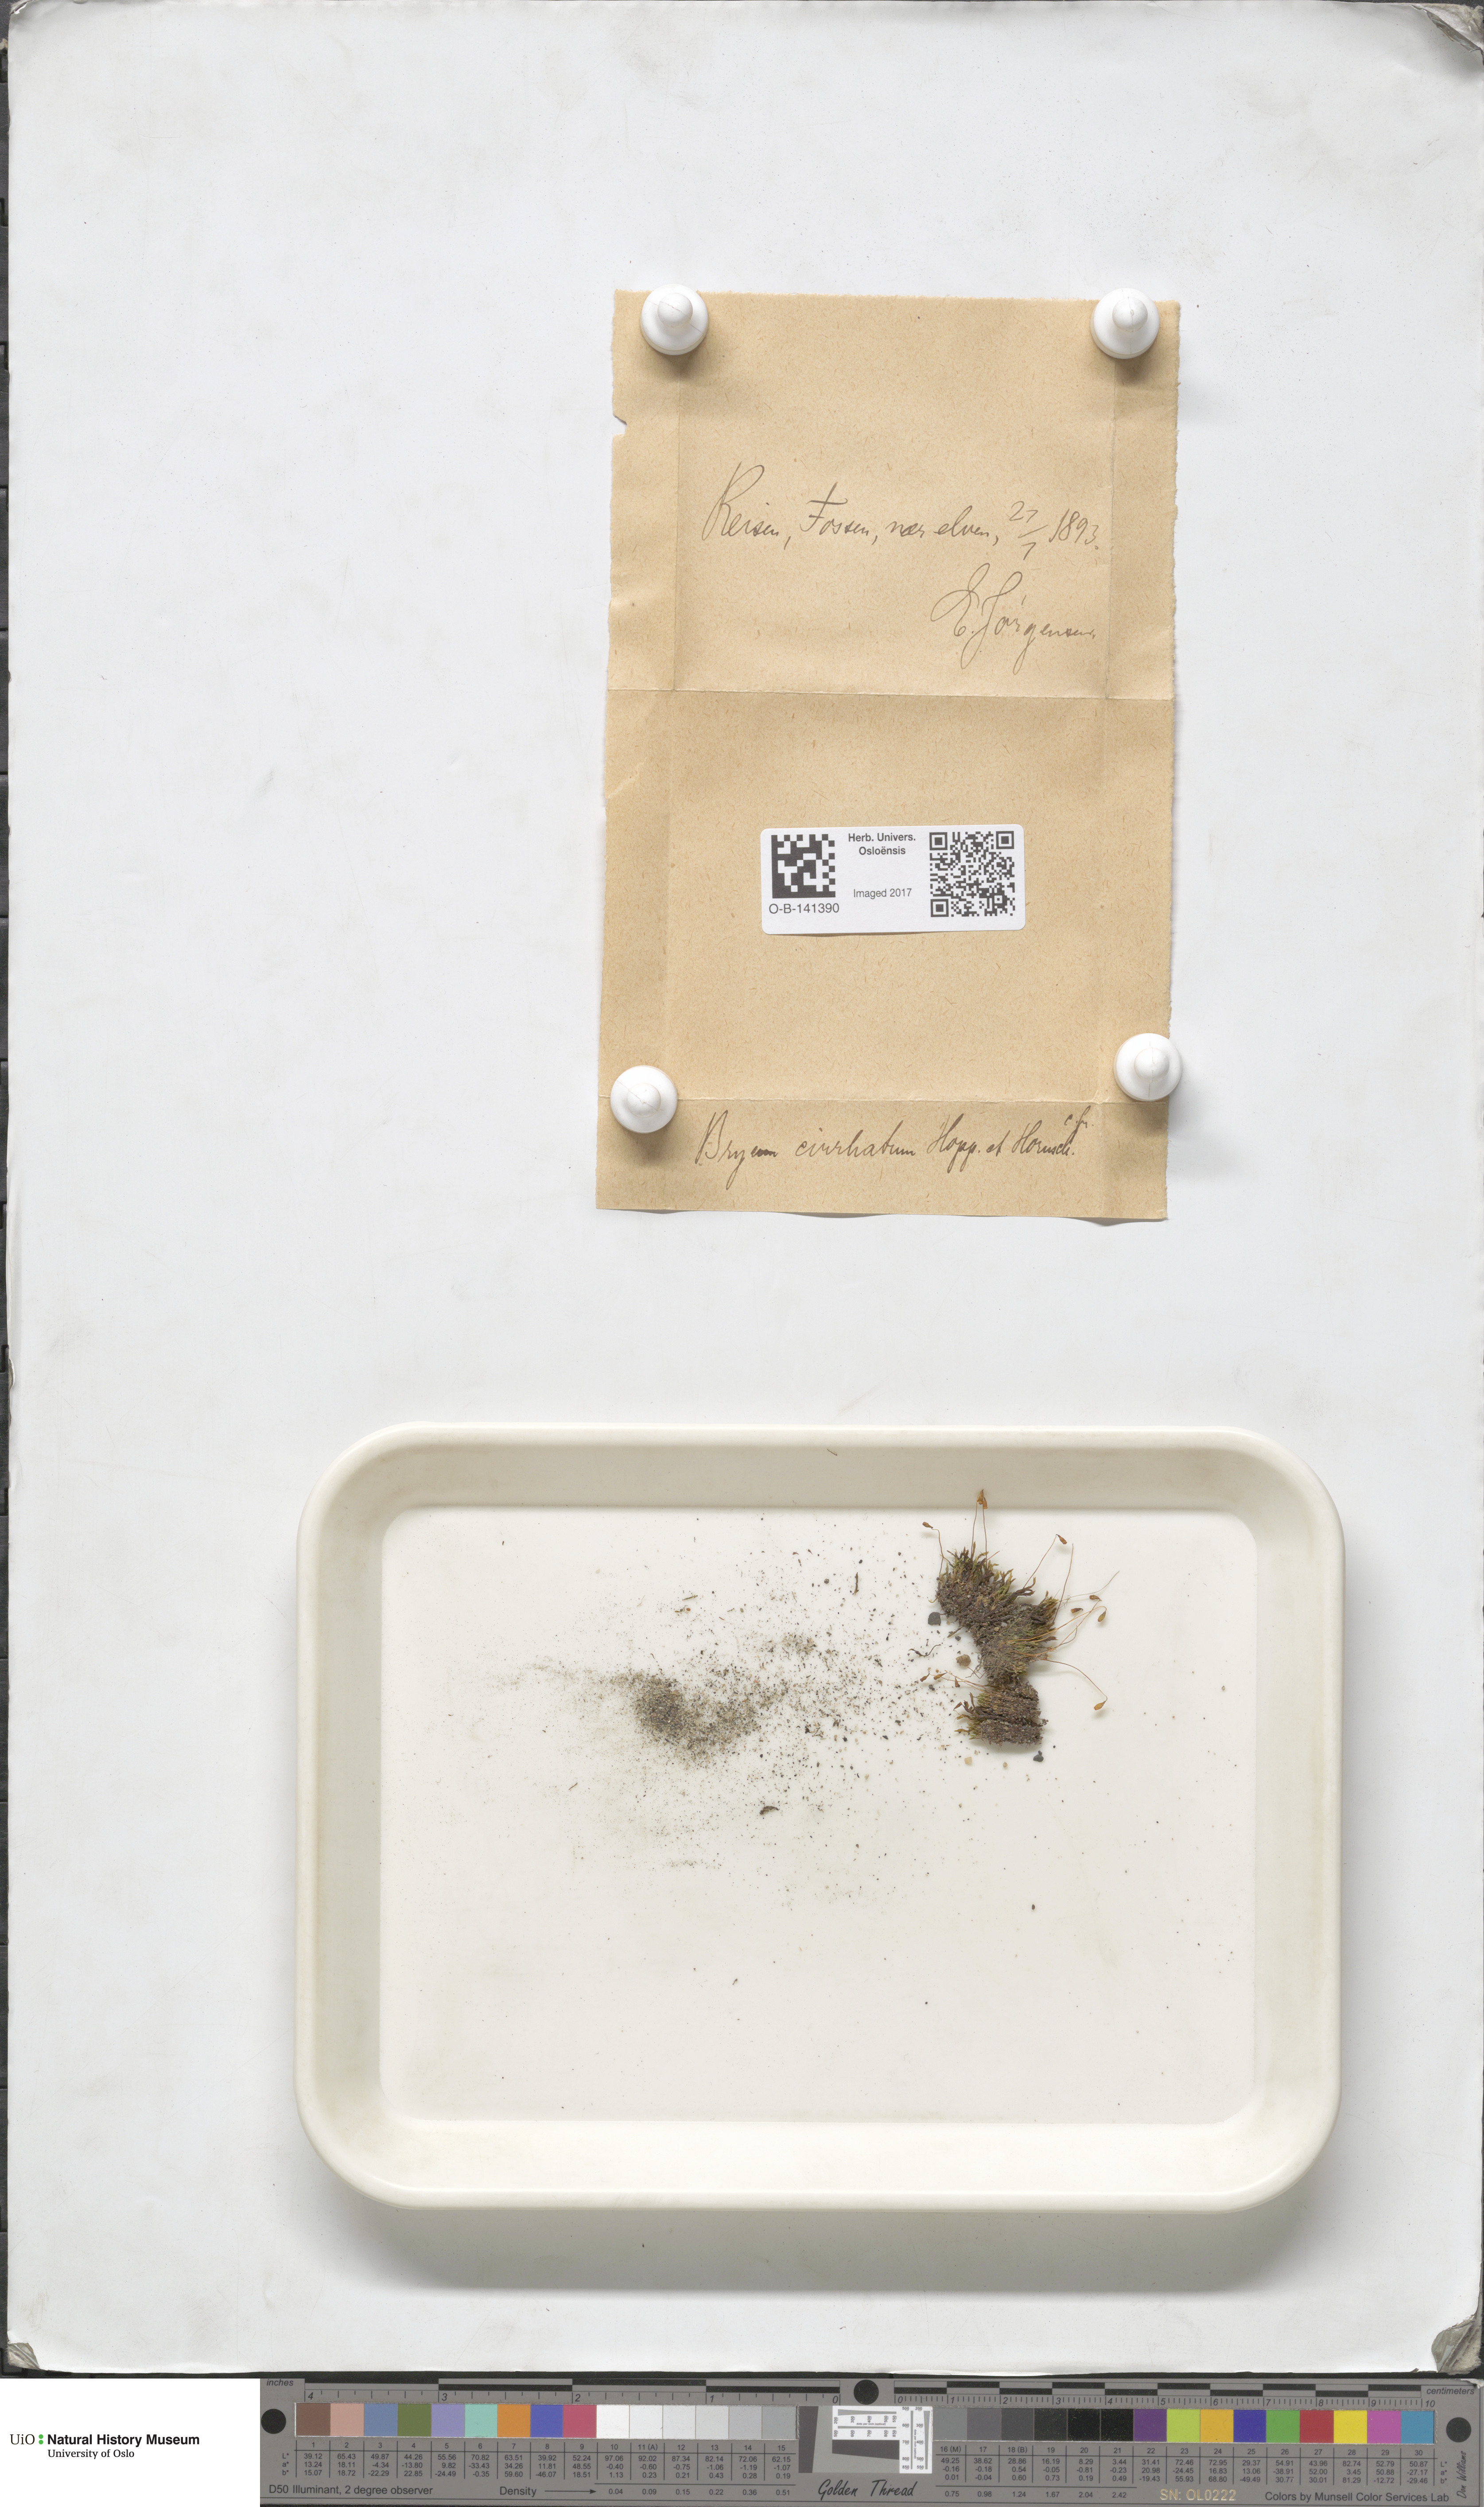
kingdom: Plantae
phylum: Bryophyta
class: Bryopsida
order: Bryales
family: Bryaceae
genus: Ptychostomum
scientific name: Ptychostomum pallescens
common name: Tall-clustered thread-moss
